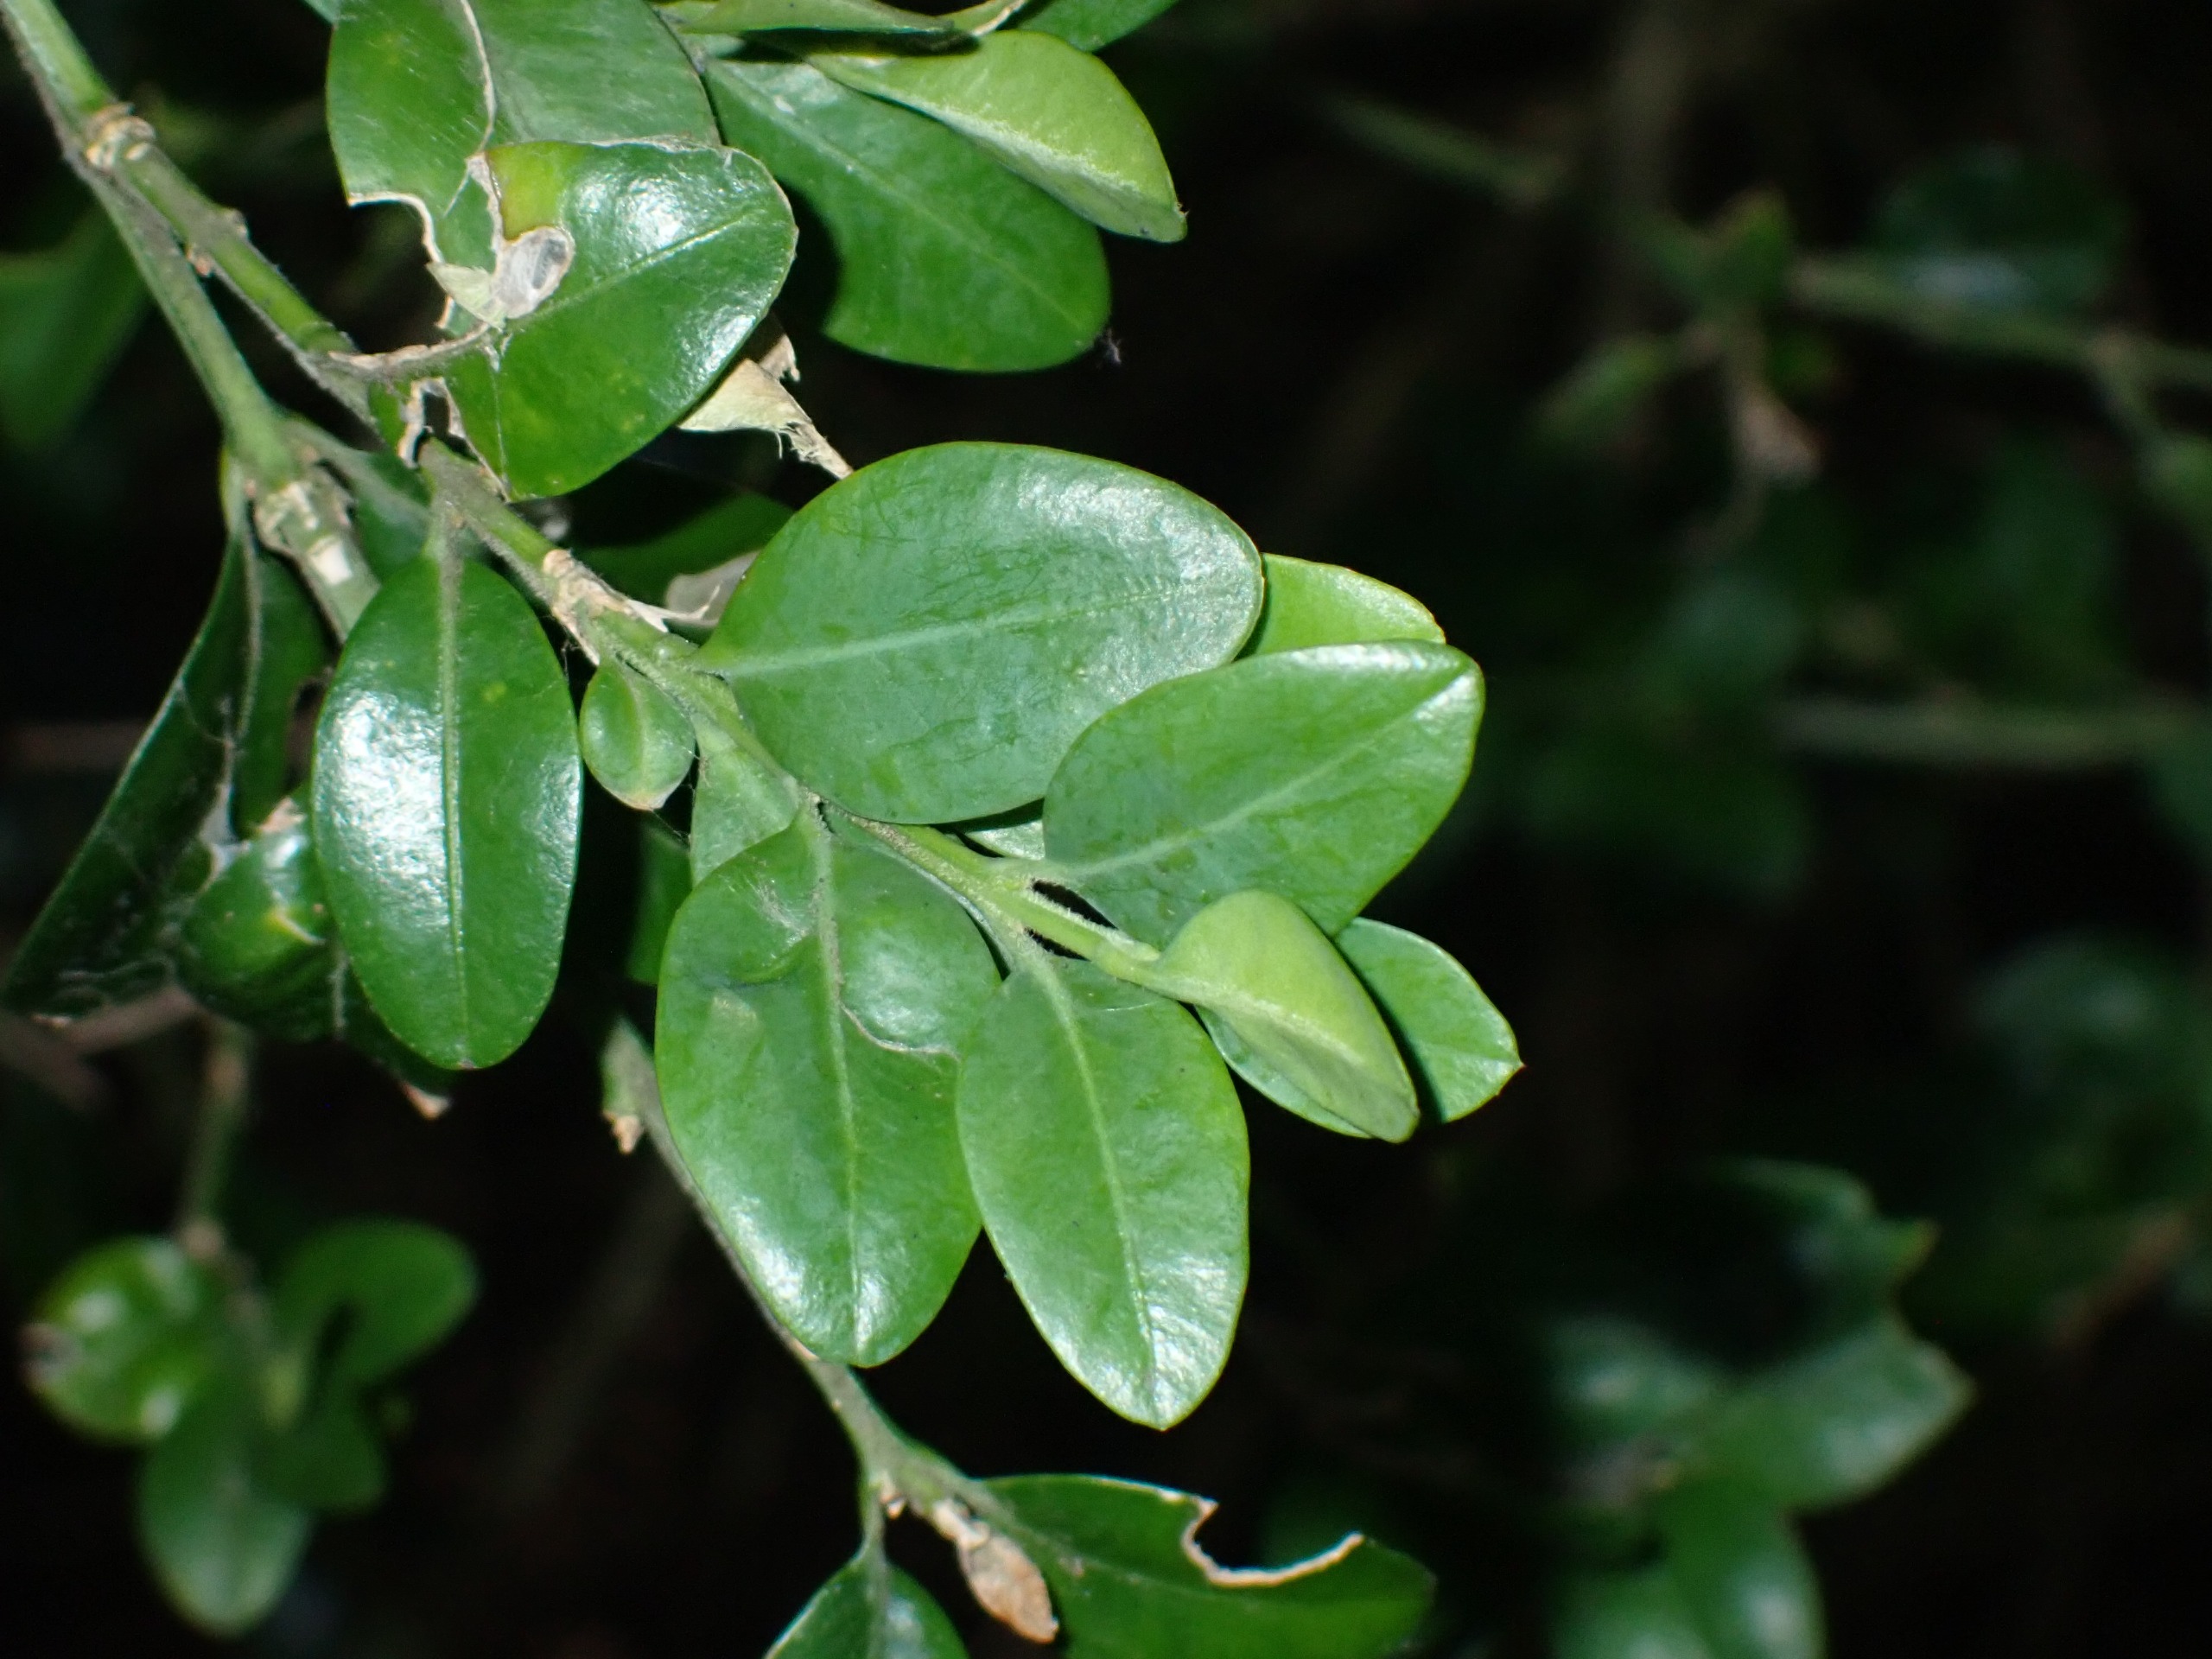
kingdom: Plantae
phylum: Tracheophyta
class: Magnoliopsida
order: Buxales
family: Buxaceae
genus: Buxus
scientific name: Buxus sempervirens
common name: Almindelig buksbom
